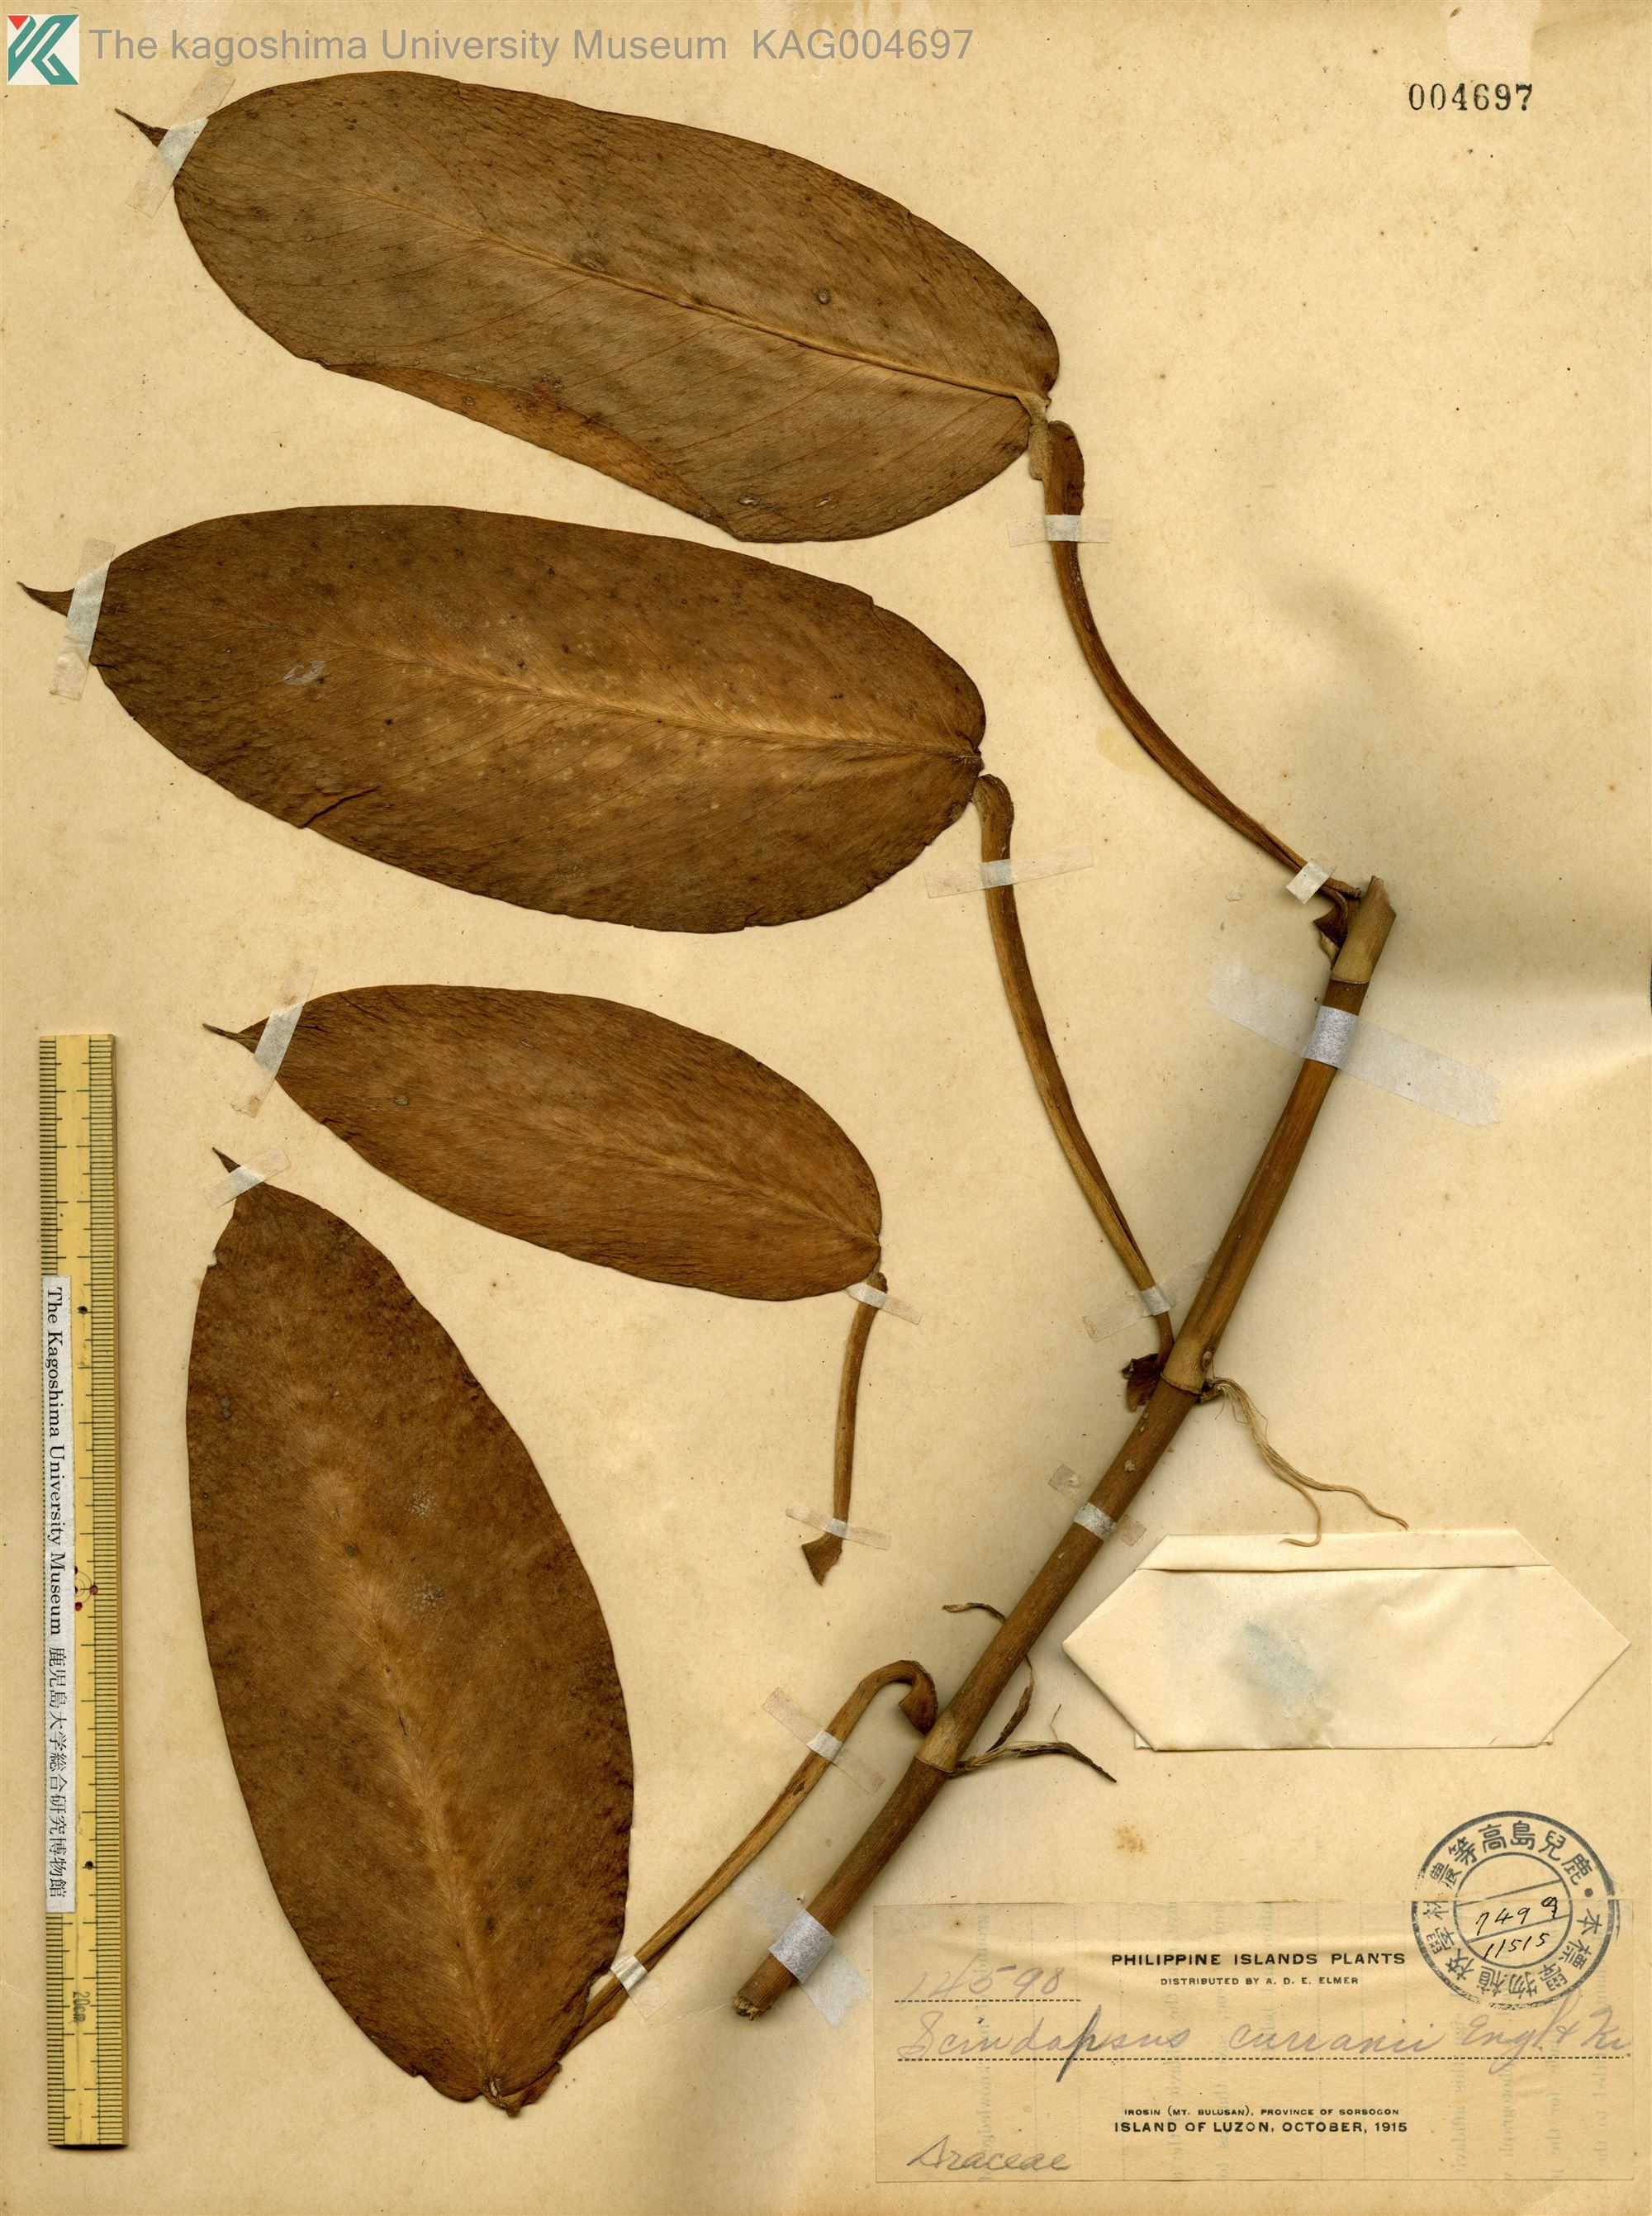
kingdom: Plantae
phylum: Tracheophyta
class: Liliopsida
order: Alismatales
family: Araceae
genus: Scindapsus
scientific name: Scindapsus curranii
